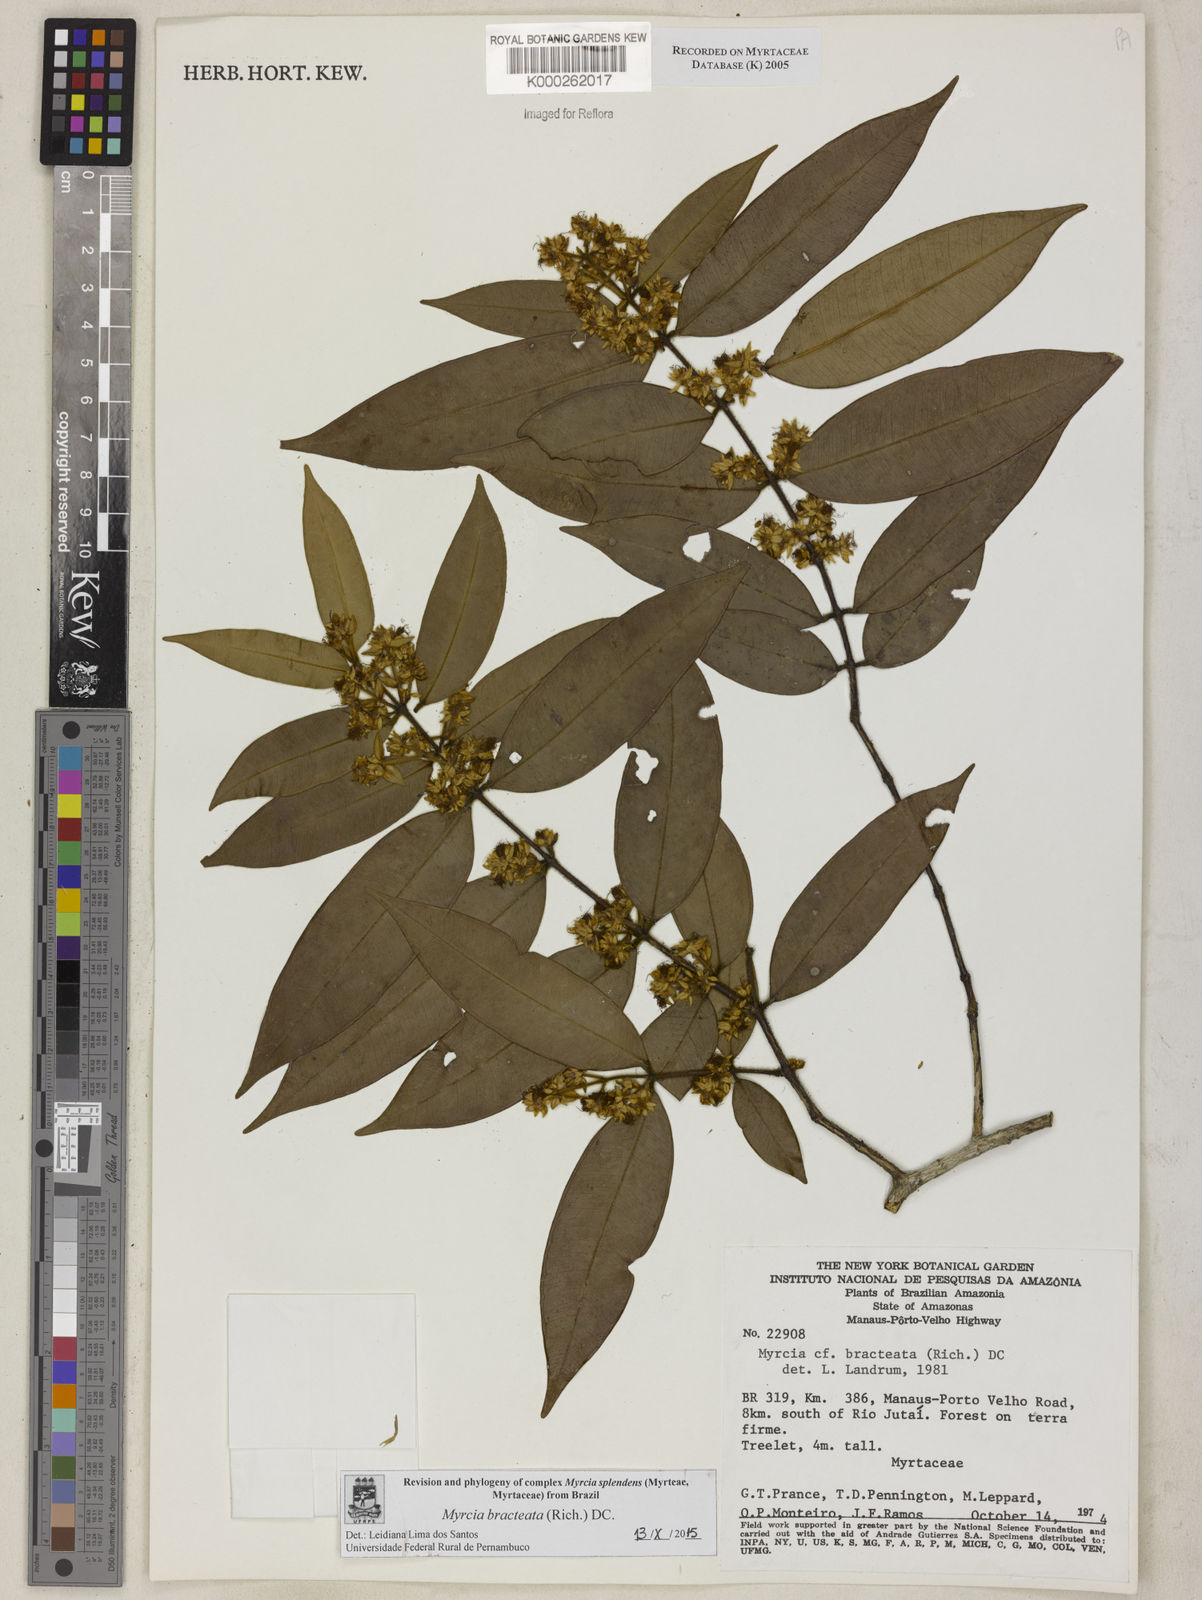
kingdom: Plantae
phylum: Tracheophyta
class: Magnoliopsida
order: Myrtales
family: Myrtaceae
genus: Myrcia
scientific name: Myrcia bracteata
